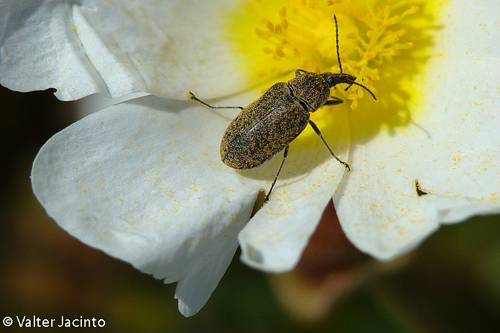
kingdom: Animalia
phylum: Arthropoda
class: Insecta
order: Coleoptera
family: Mycteridae
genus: Mycterus
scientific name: Mycterus curculioides
